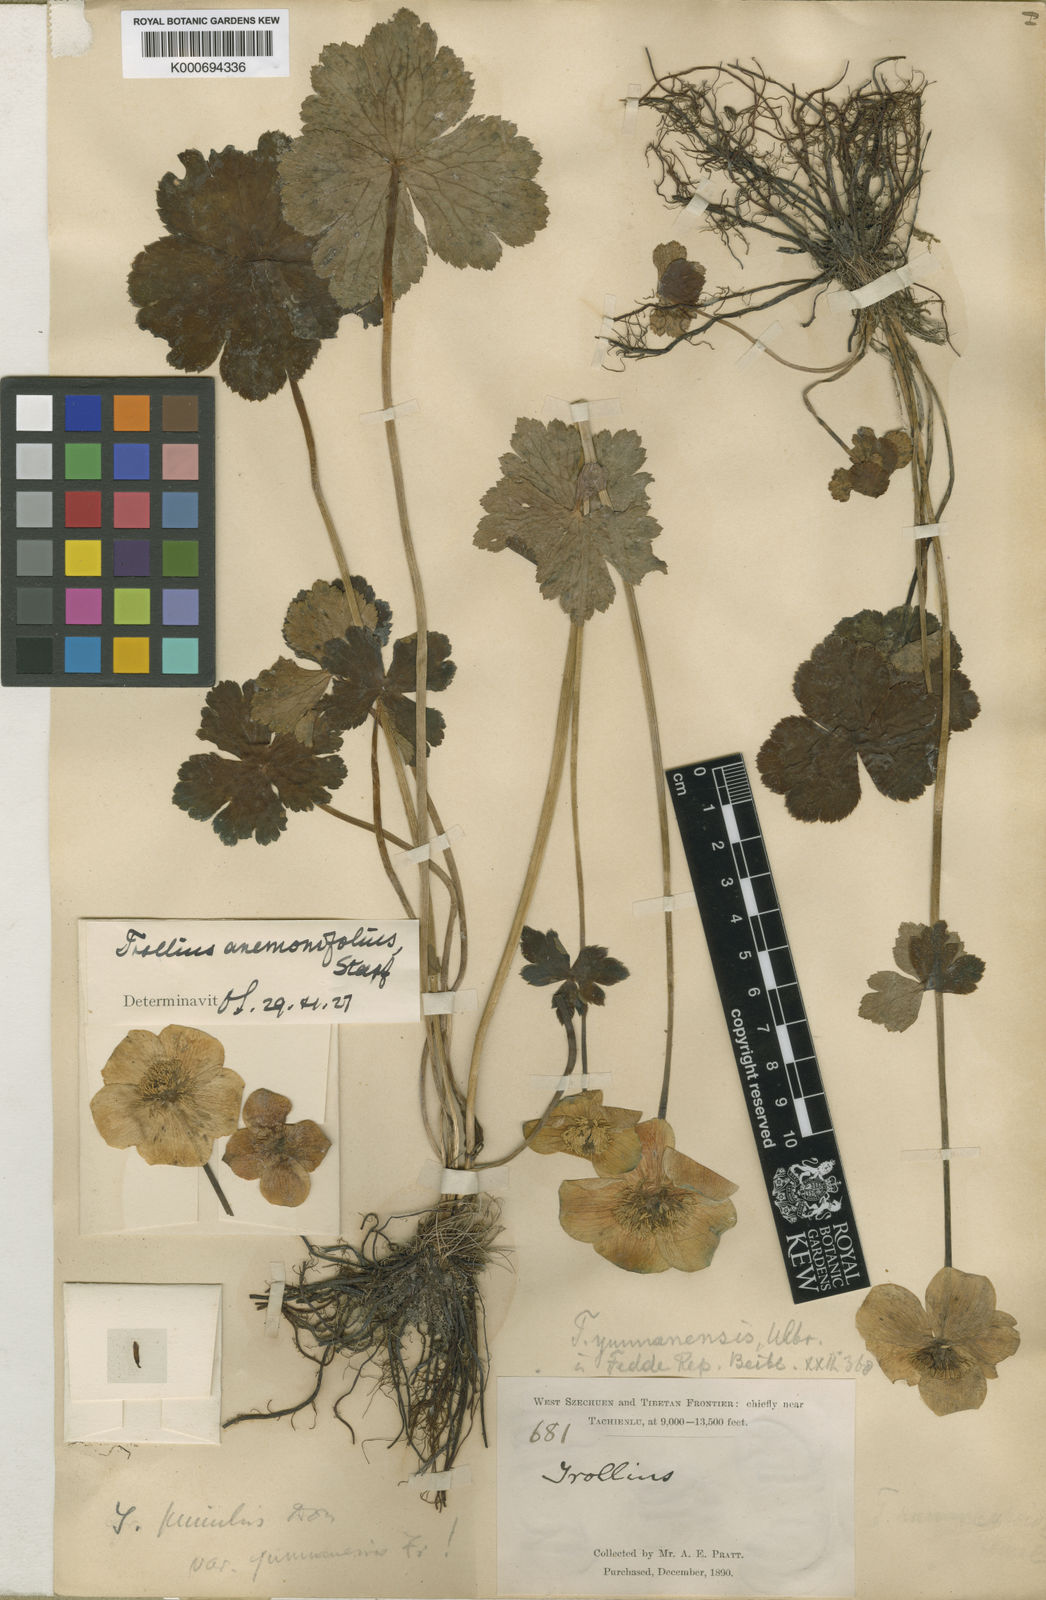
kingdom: Plantae
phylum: Tracheophyta
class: Magnoliopsida
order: Ranunculales
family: Ranunculaceae
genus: Trollius
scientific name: Trollius yunnanensis
